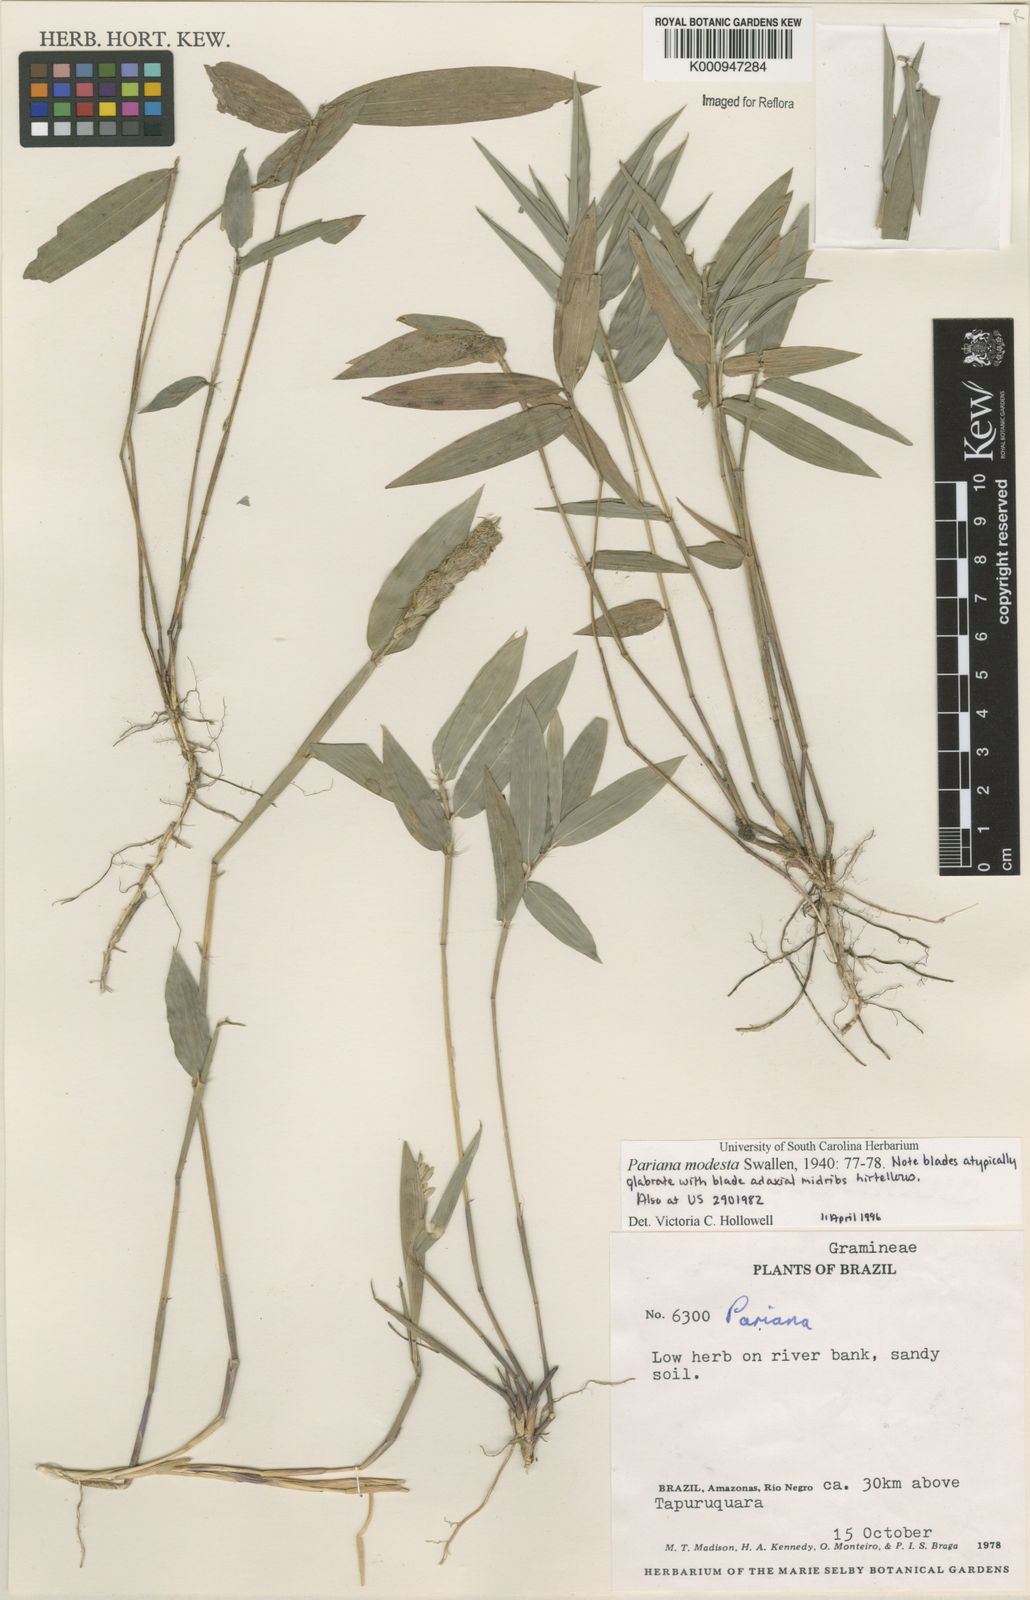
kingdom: Plantae
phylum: Tracheophyta
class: Liliopsida
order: Poales
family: Poaceae
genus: Pariana
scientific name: Pariana modesta
